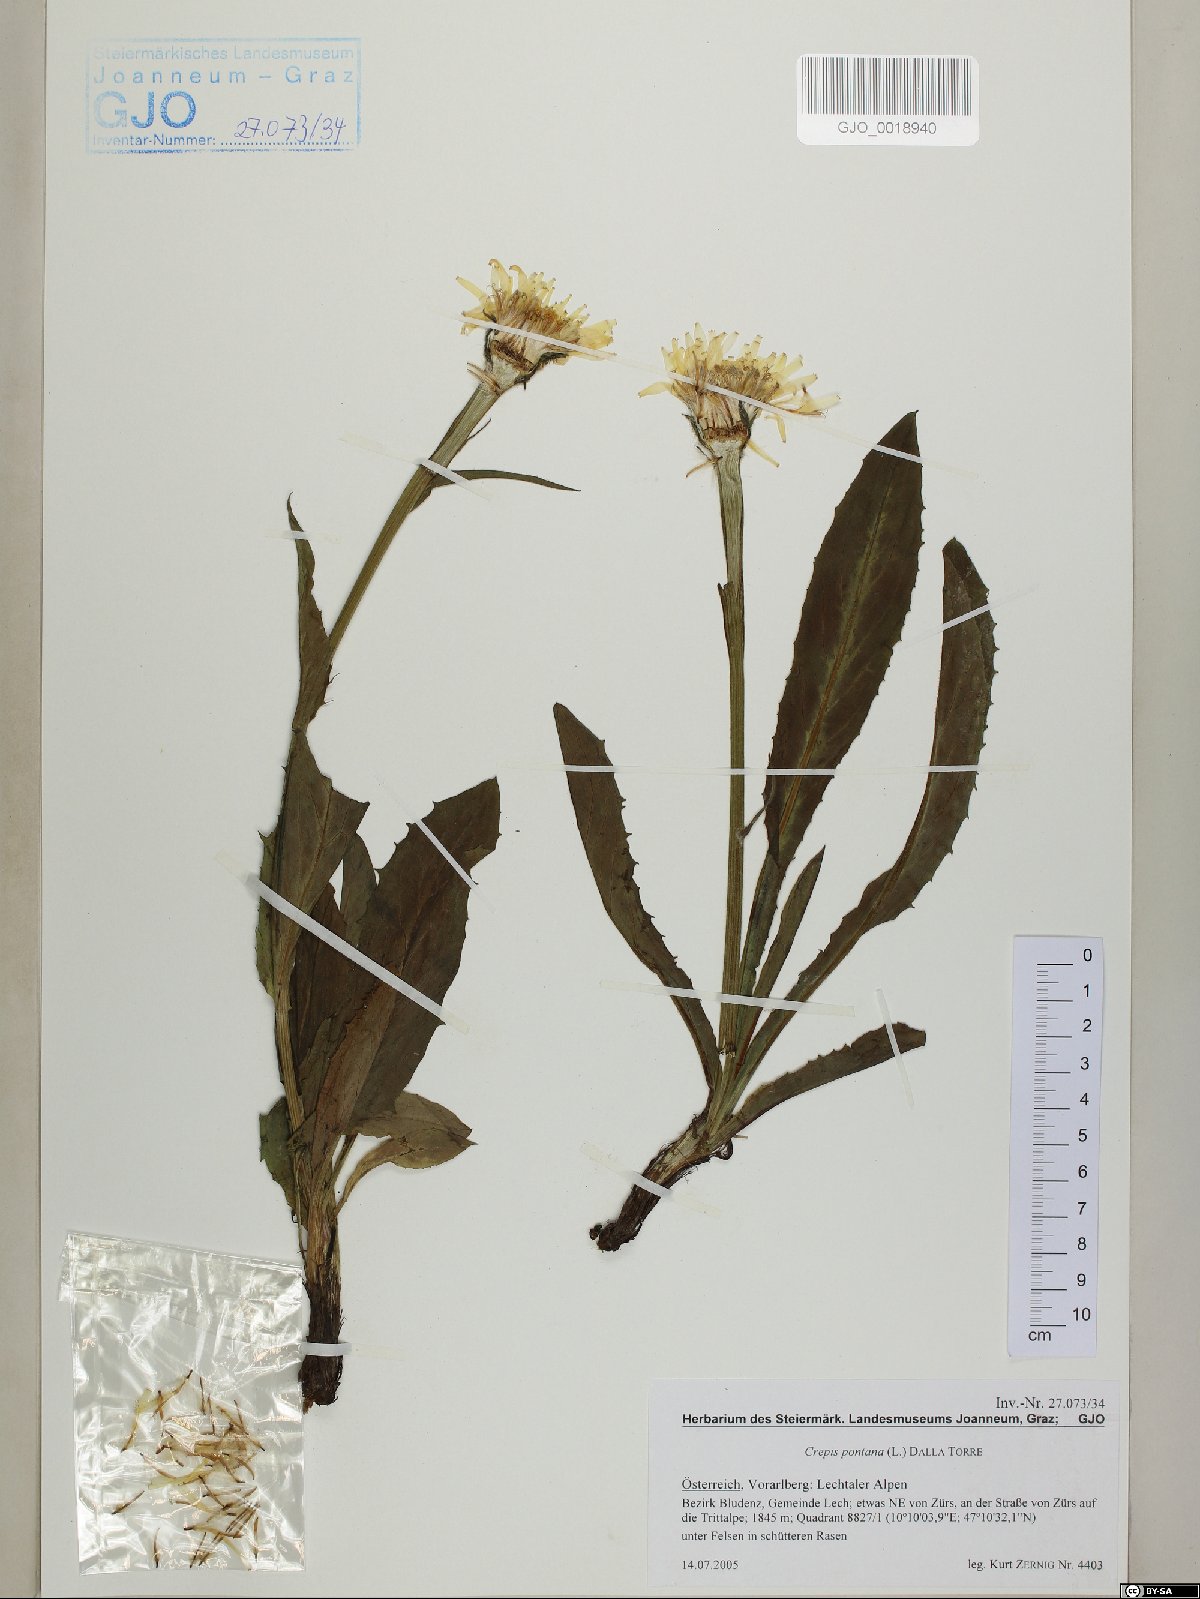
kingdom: Plantae
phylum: Tracheophyta
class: Magnoliopsida
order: Asterales
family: Asteraceae
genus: Crepis
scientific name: Crepis pontana
